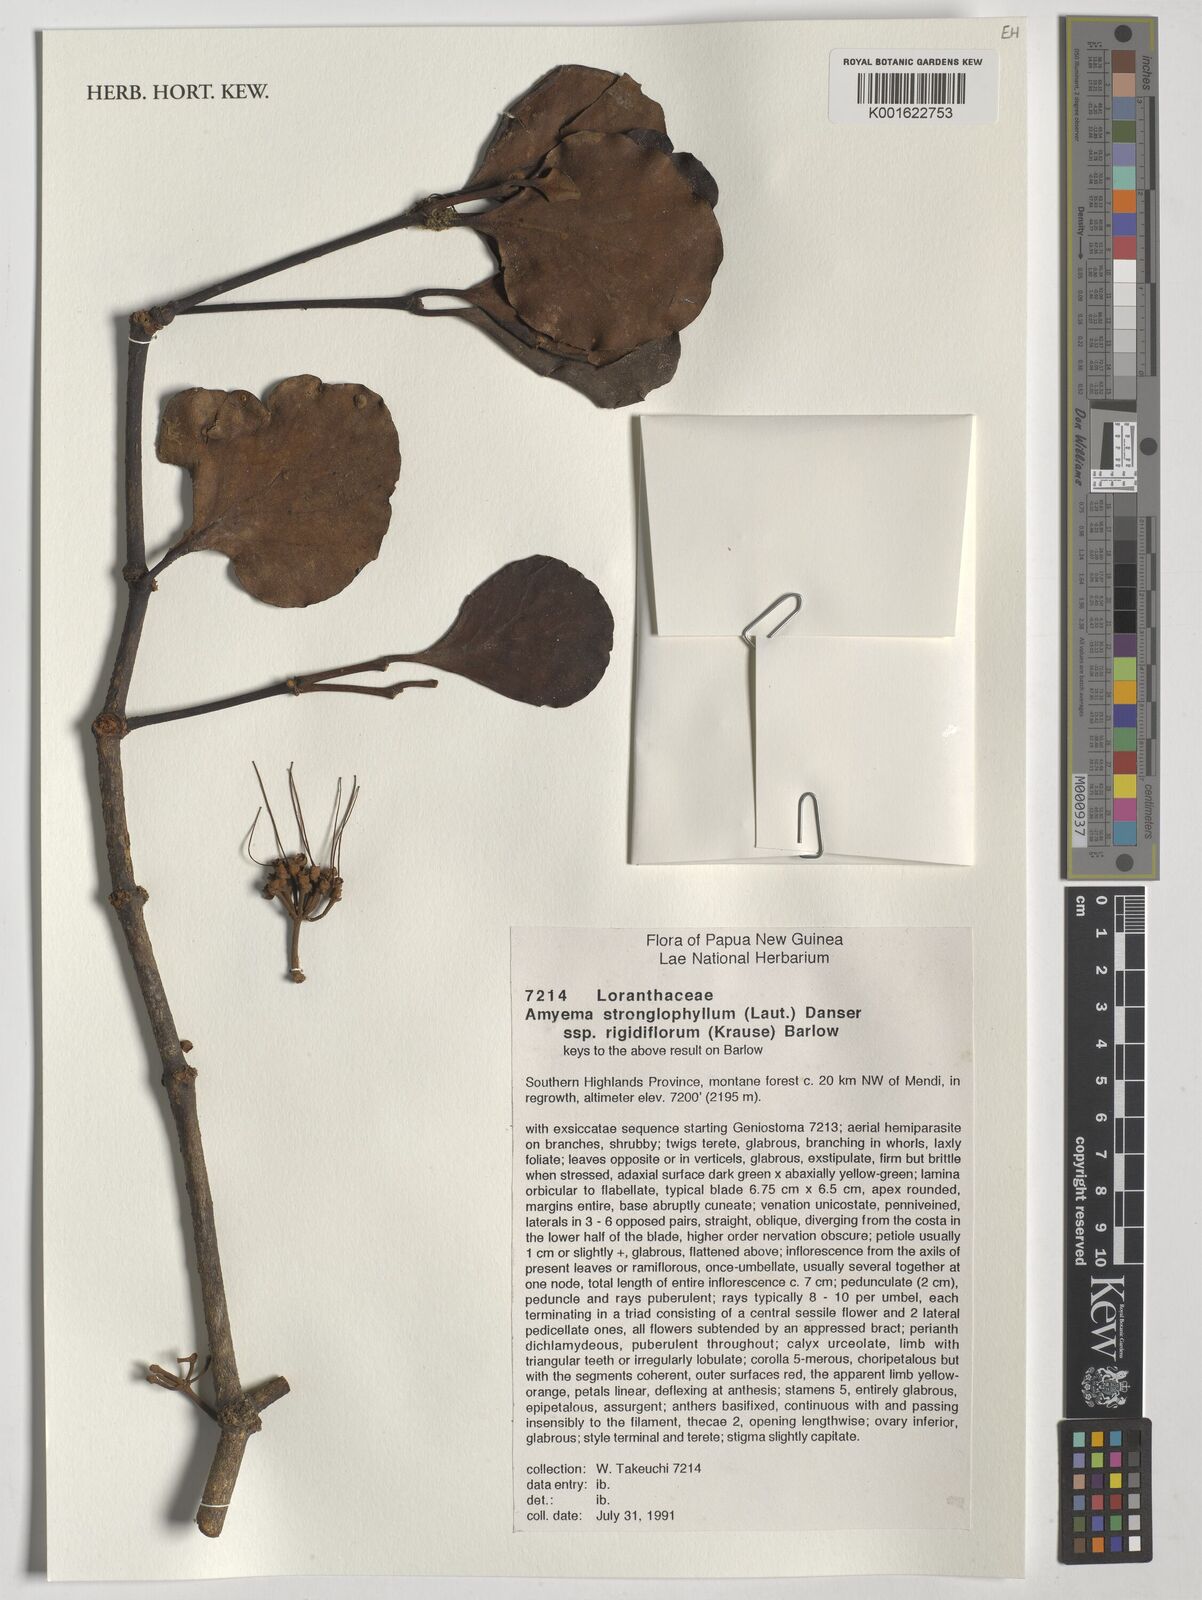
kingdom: Plantae
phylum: Tracheophyta
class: Magnoliopsida
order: Santalales
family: Loranthaceae
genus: Amyema
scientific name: Amyema
